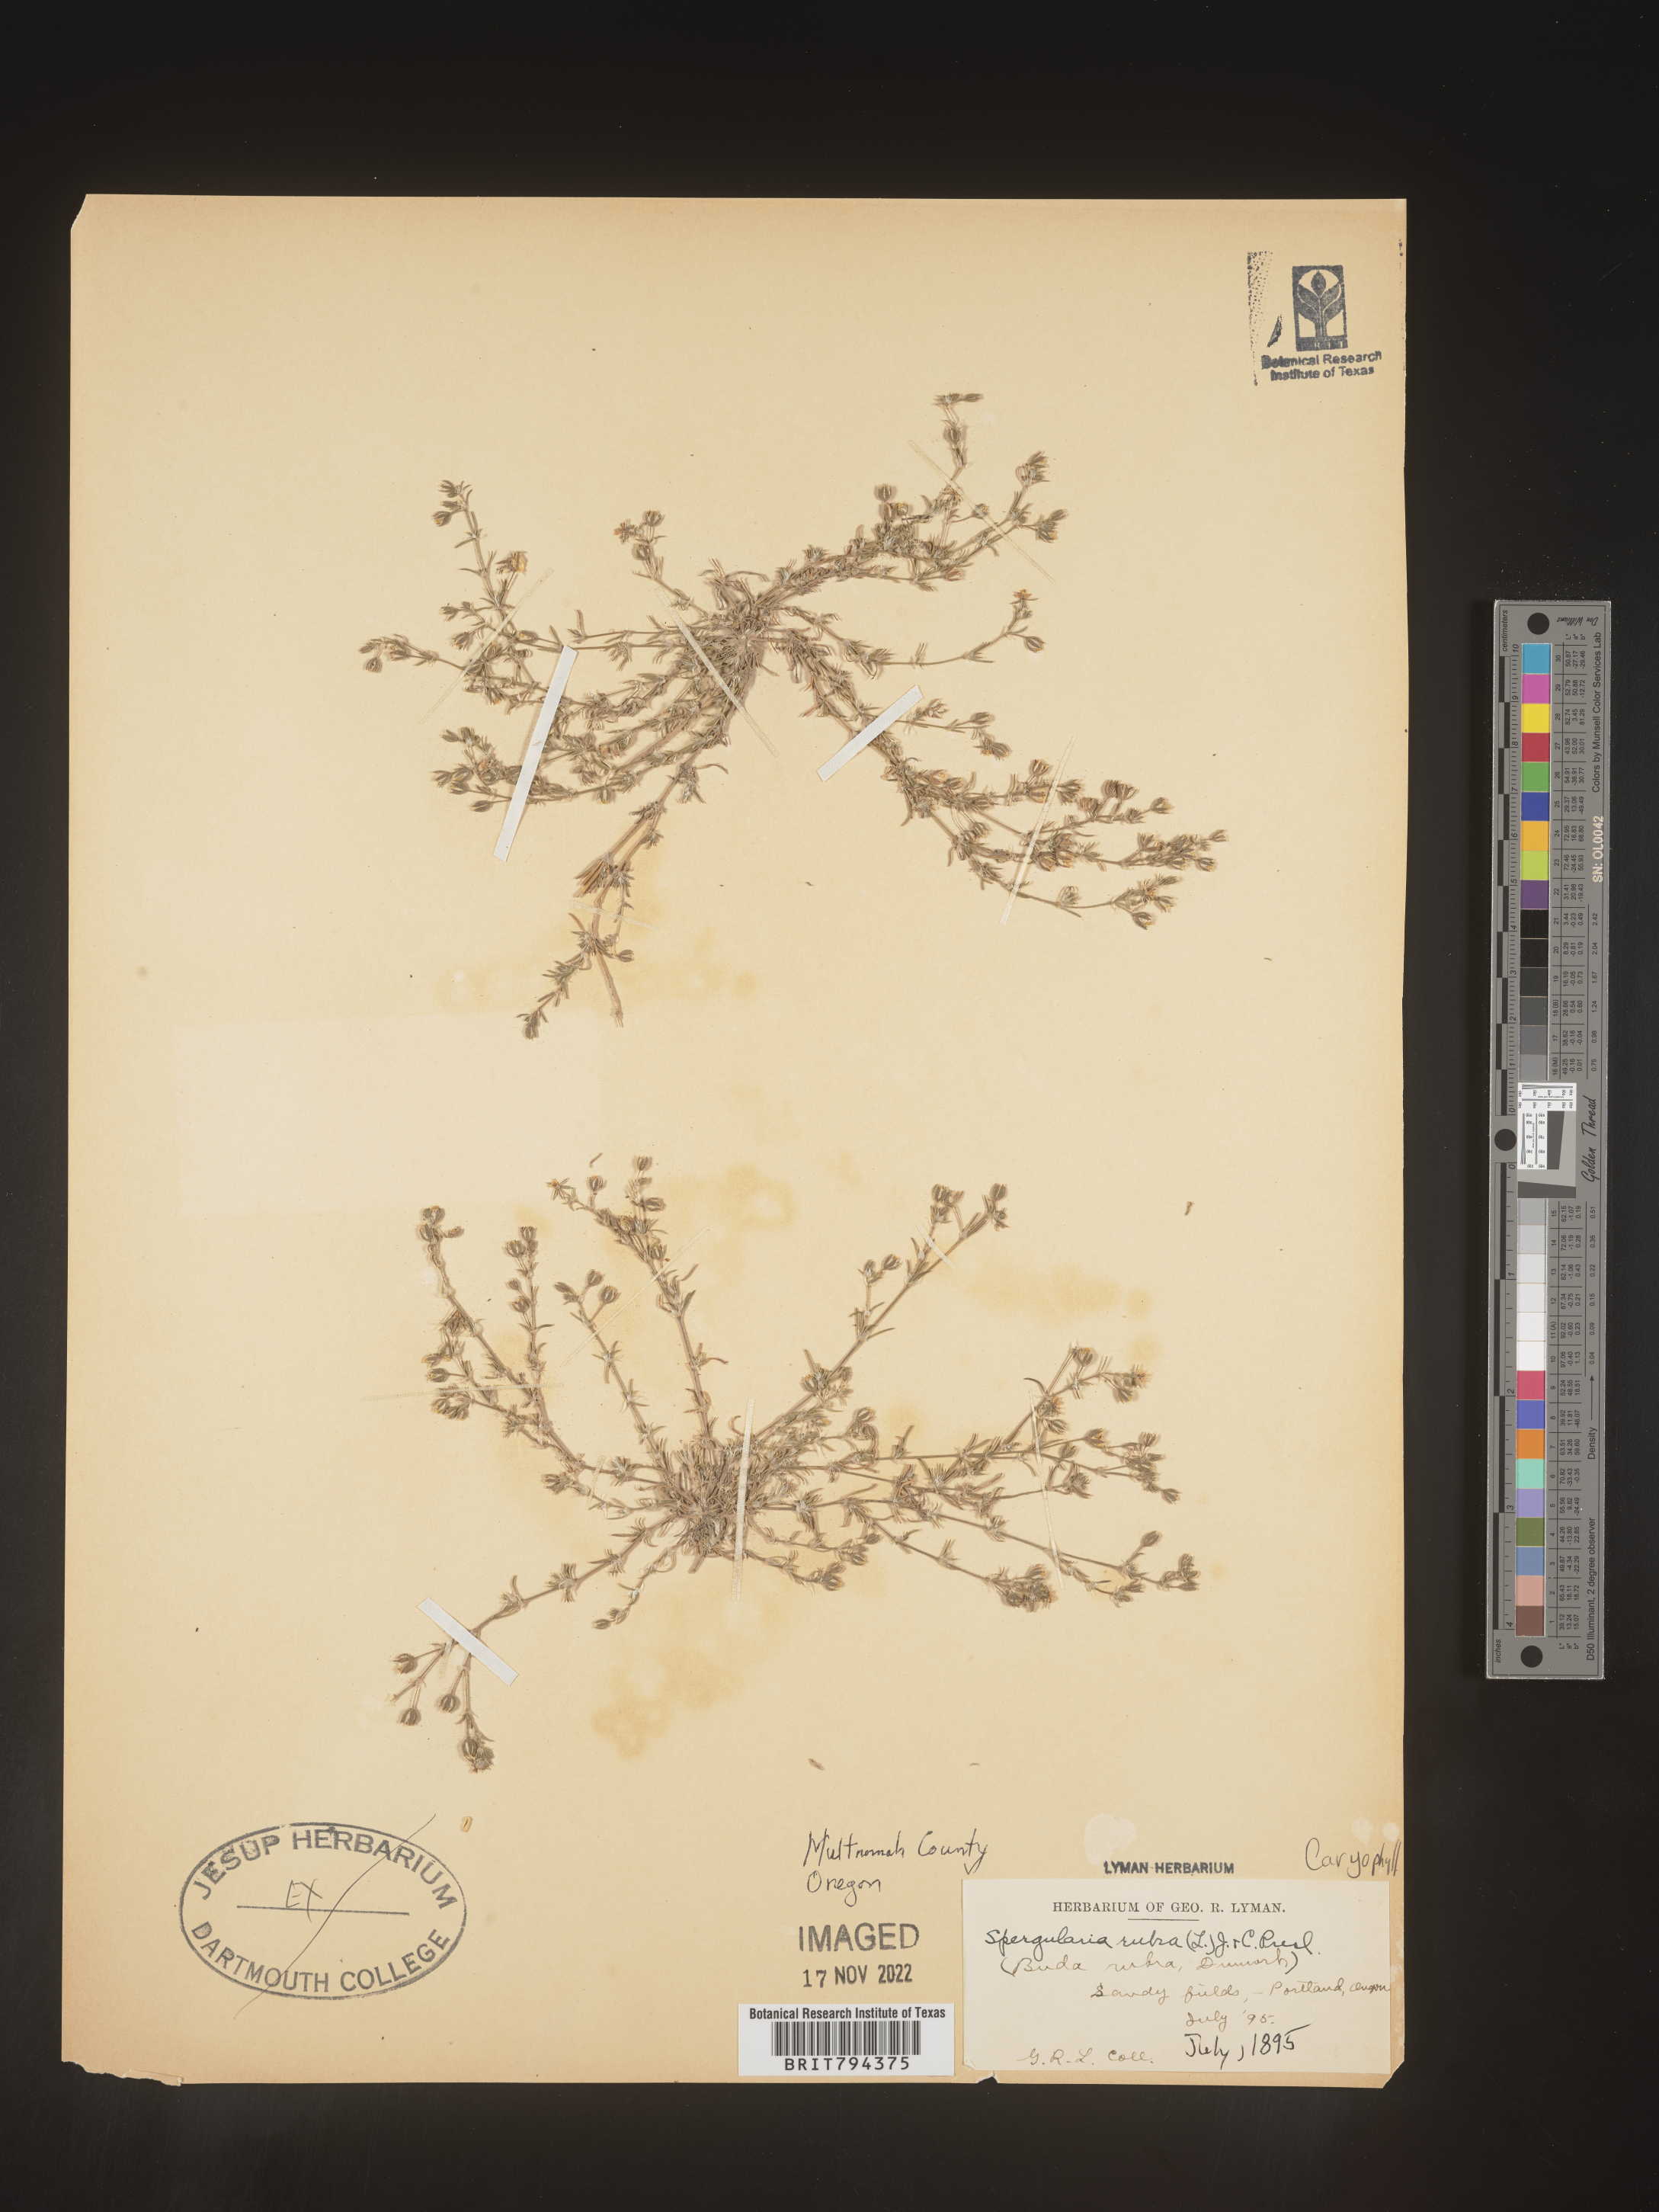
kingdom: Plantae
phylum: Tracheophyta
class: Magnoliopsida
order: Caryophyllales
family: Caryophyllaceae
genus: Spergularia
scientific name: Spergularia rubra
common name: Red sand-spurrey
